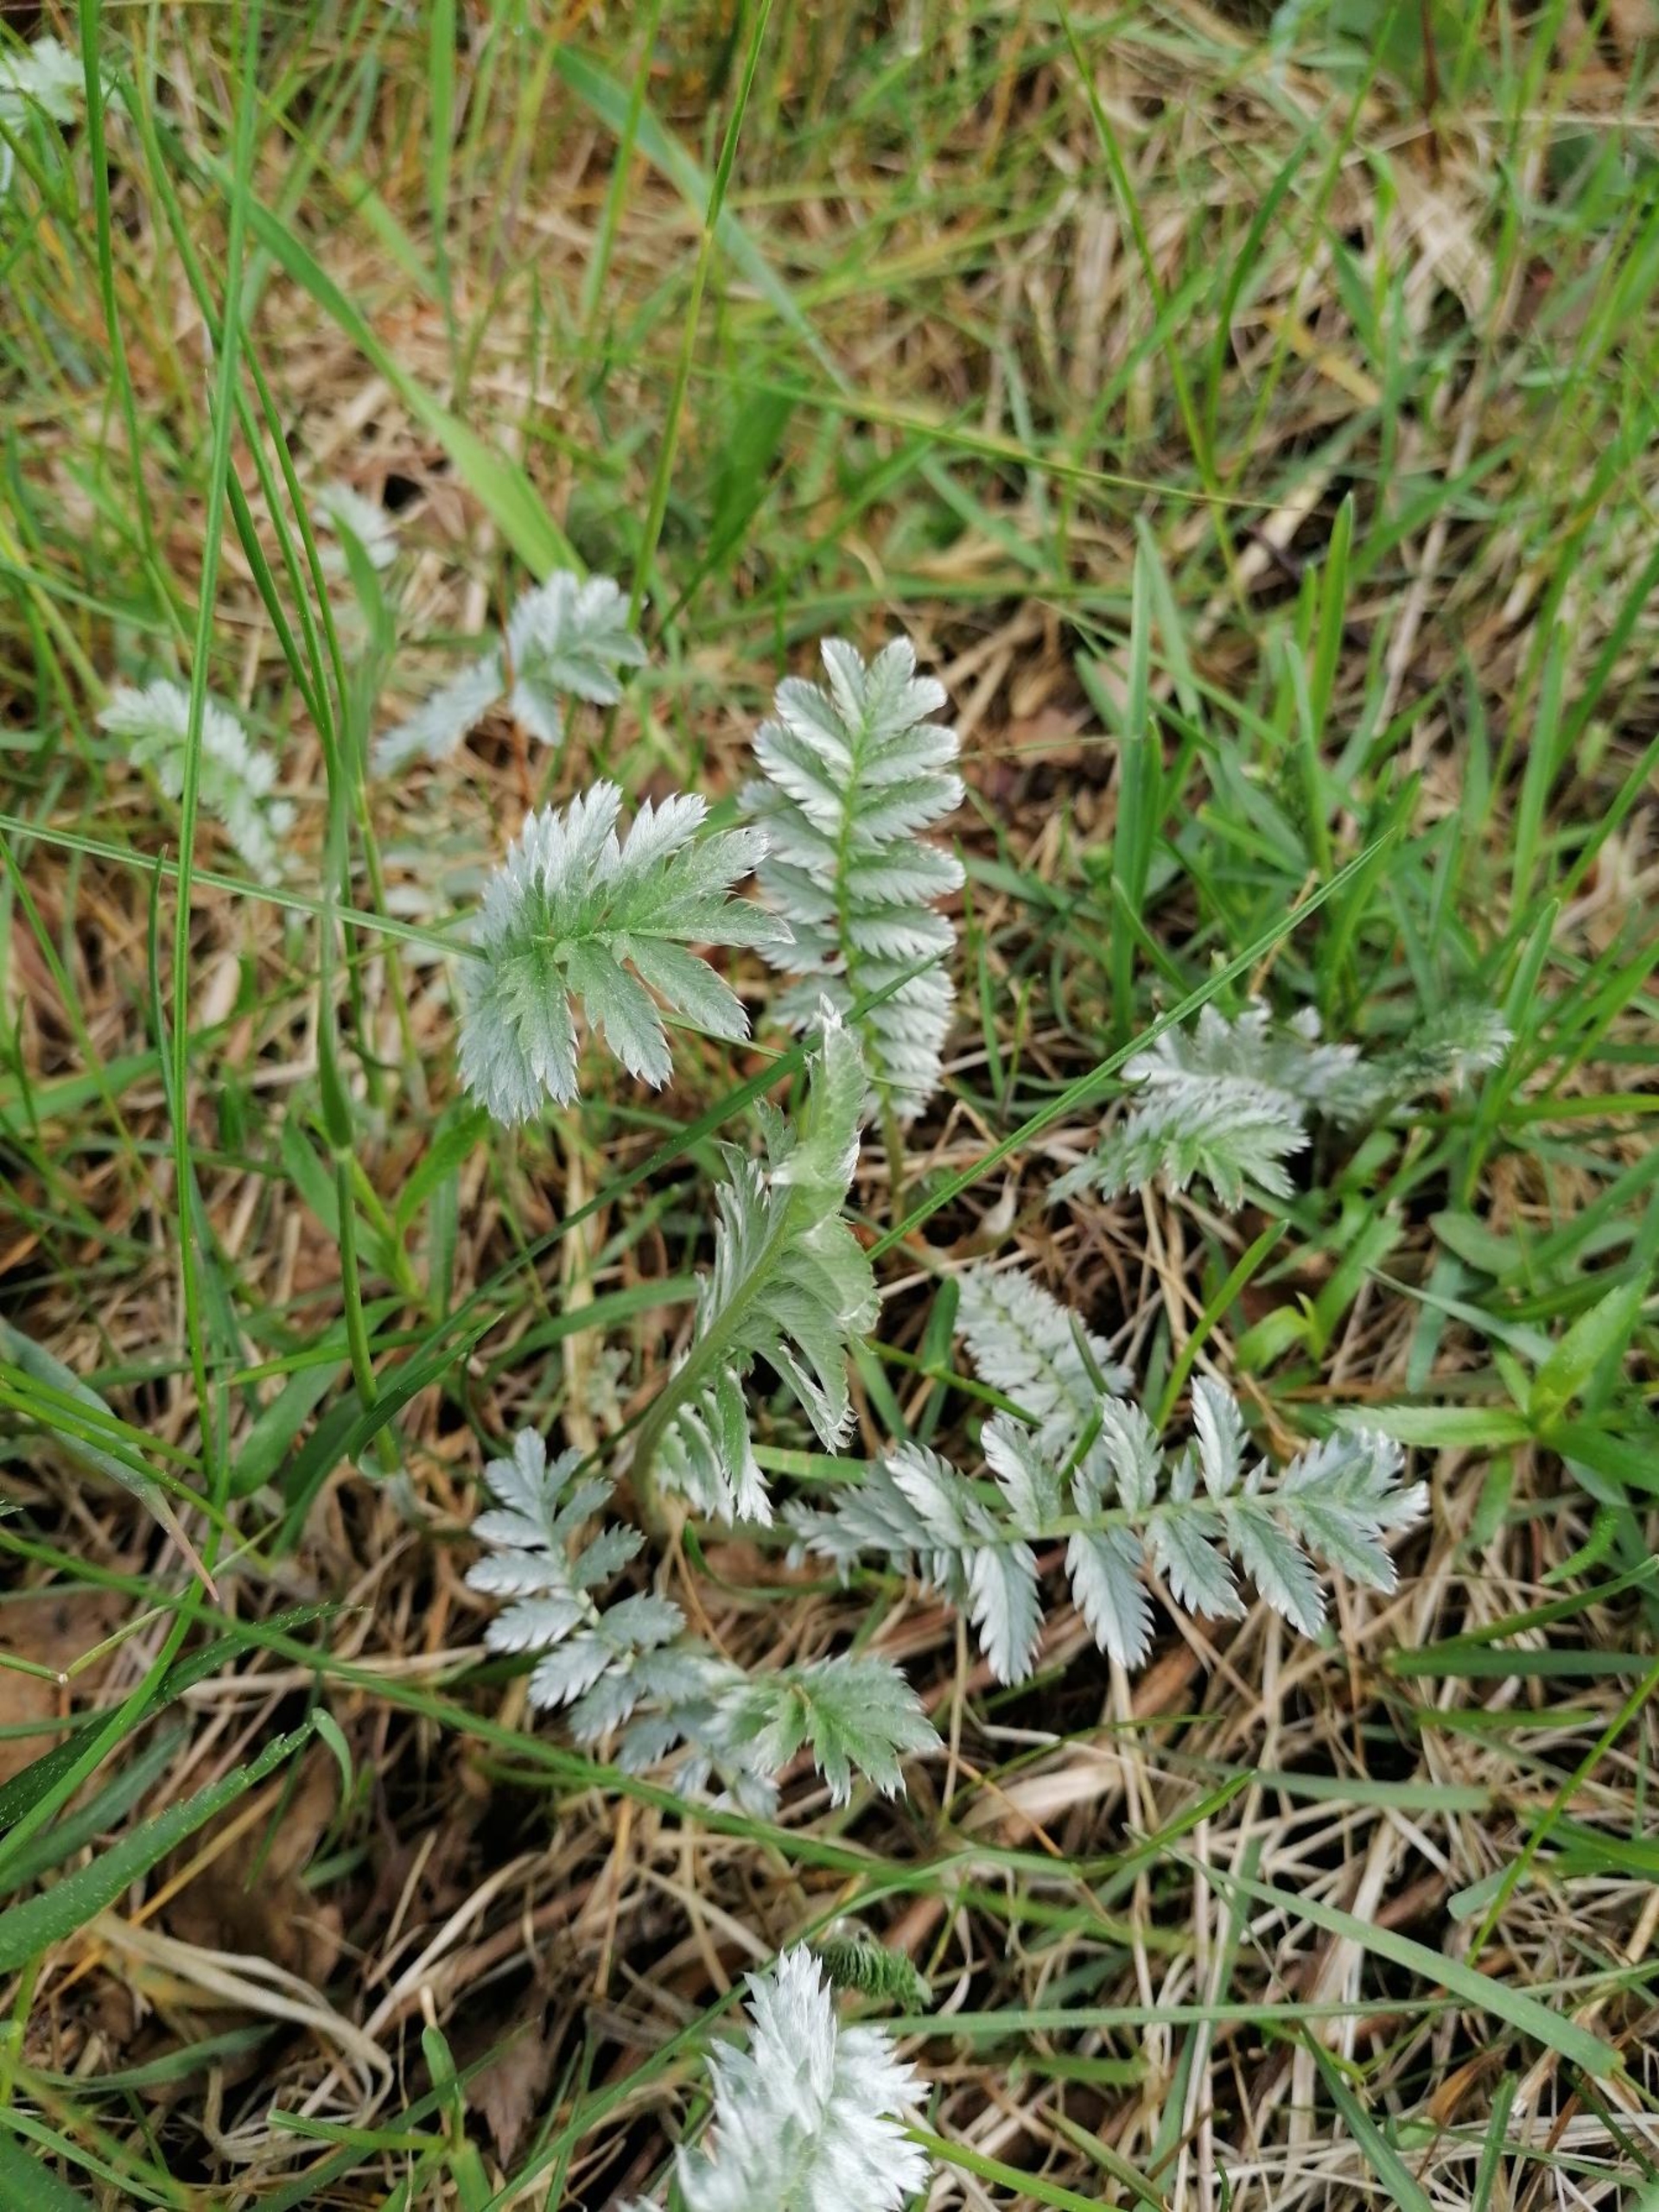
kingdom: Plantae
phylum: Tracheophyta
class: Magnoliopsida
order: Rosales
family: Rosaceae
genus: Argentina
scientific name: Argentina anserina
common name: Gåsepotentil
